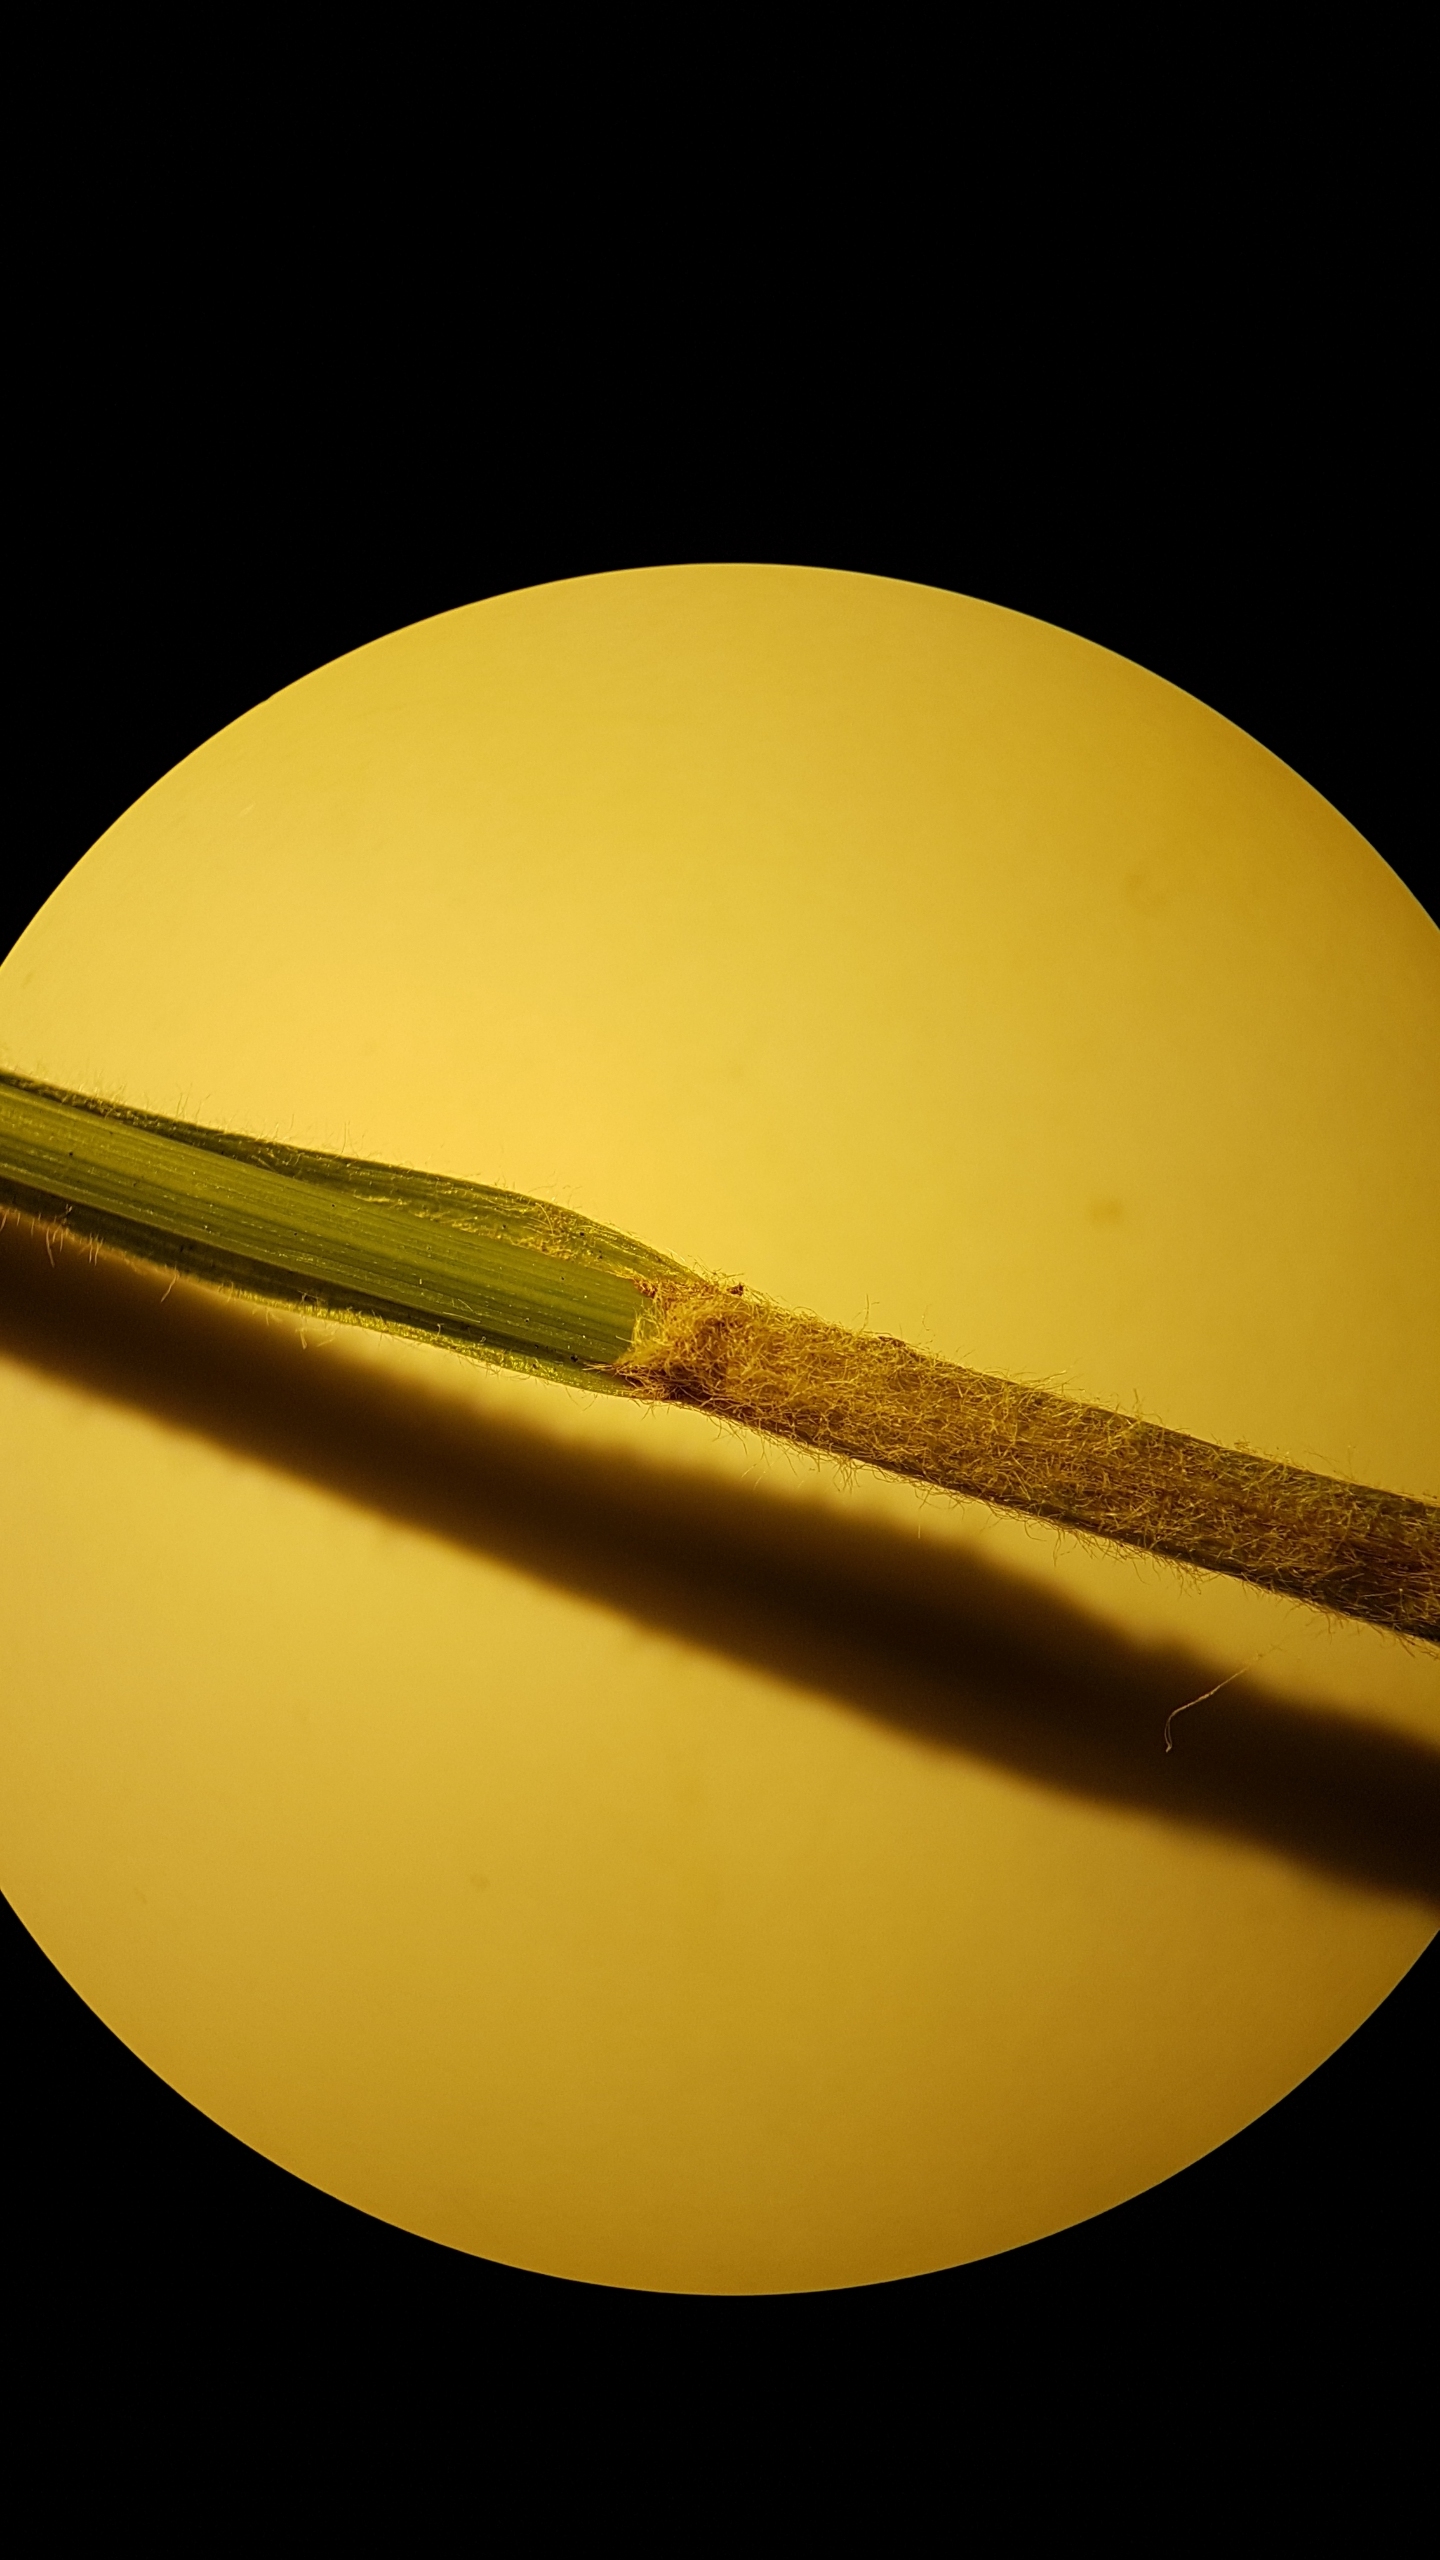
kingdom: Plantae
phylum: Tracheophyta
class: Liliopsida
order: Poales
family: Cyperaceae
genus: Carex
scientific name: Carex hirta
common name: Håret star
